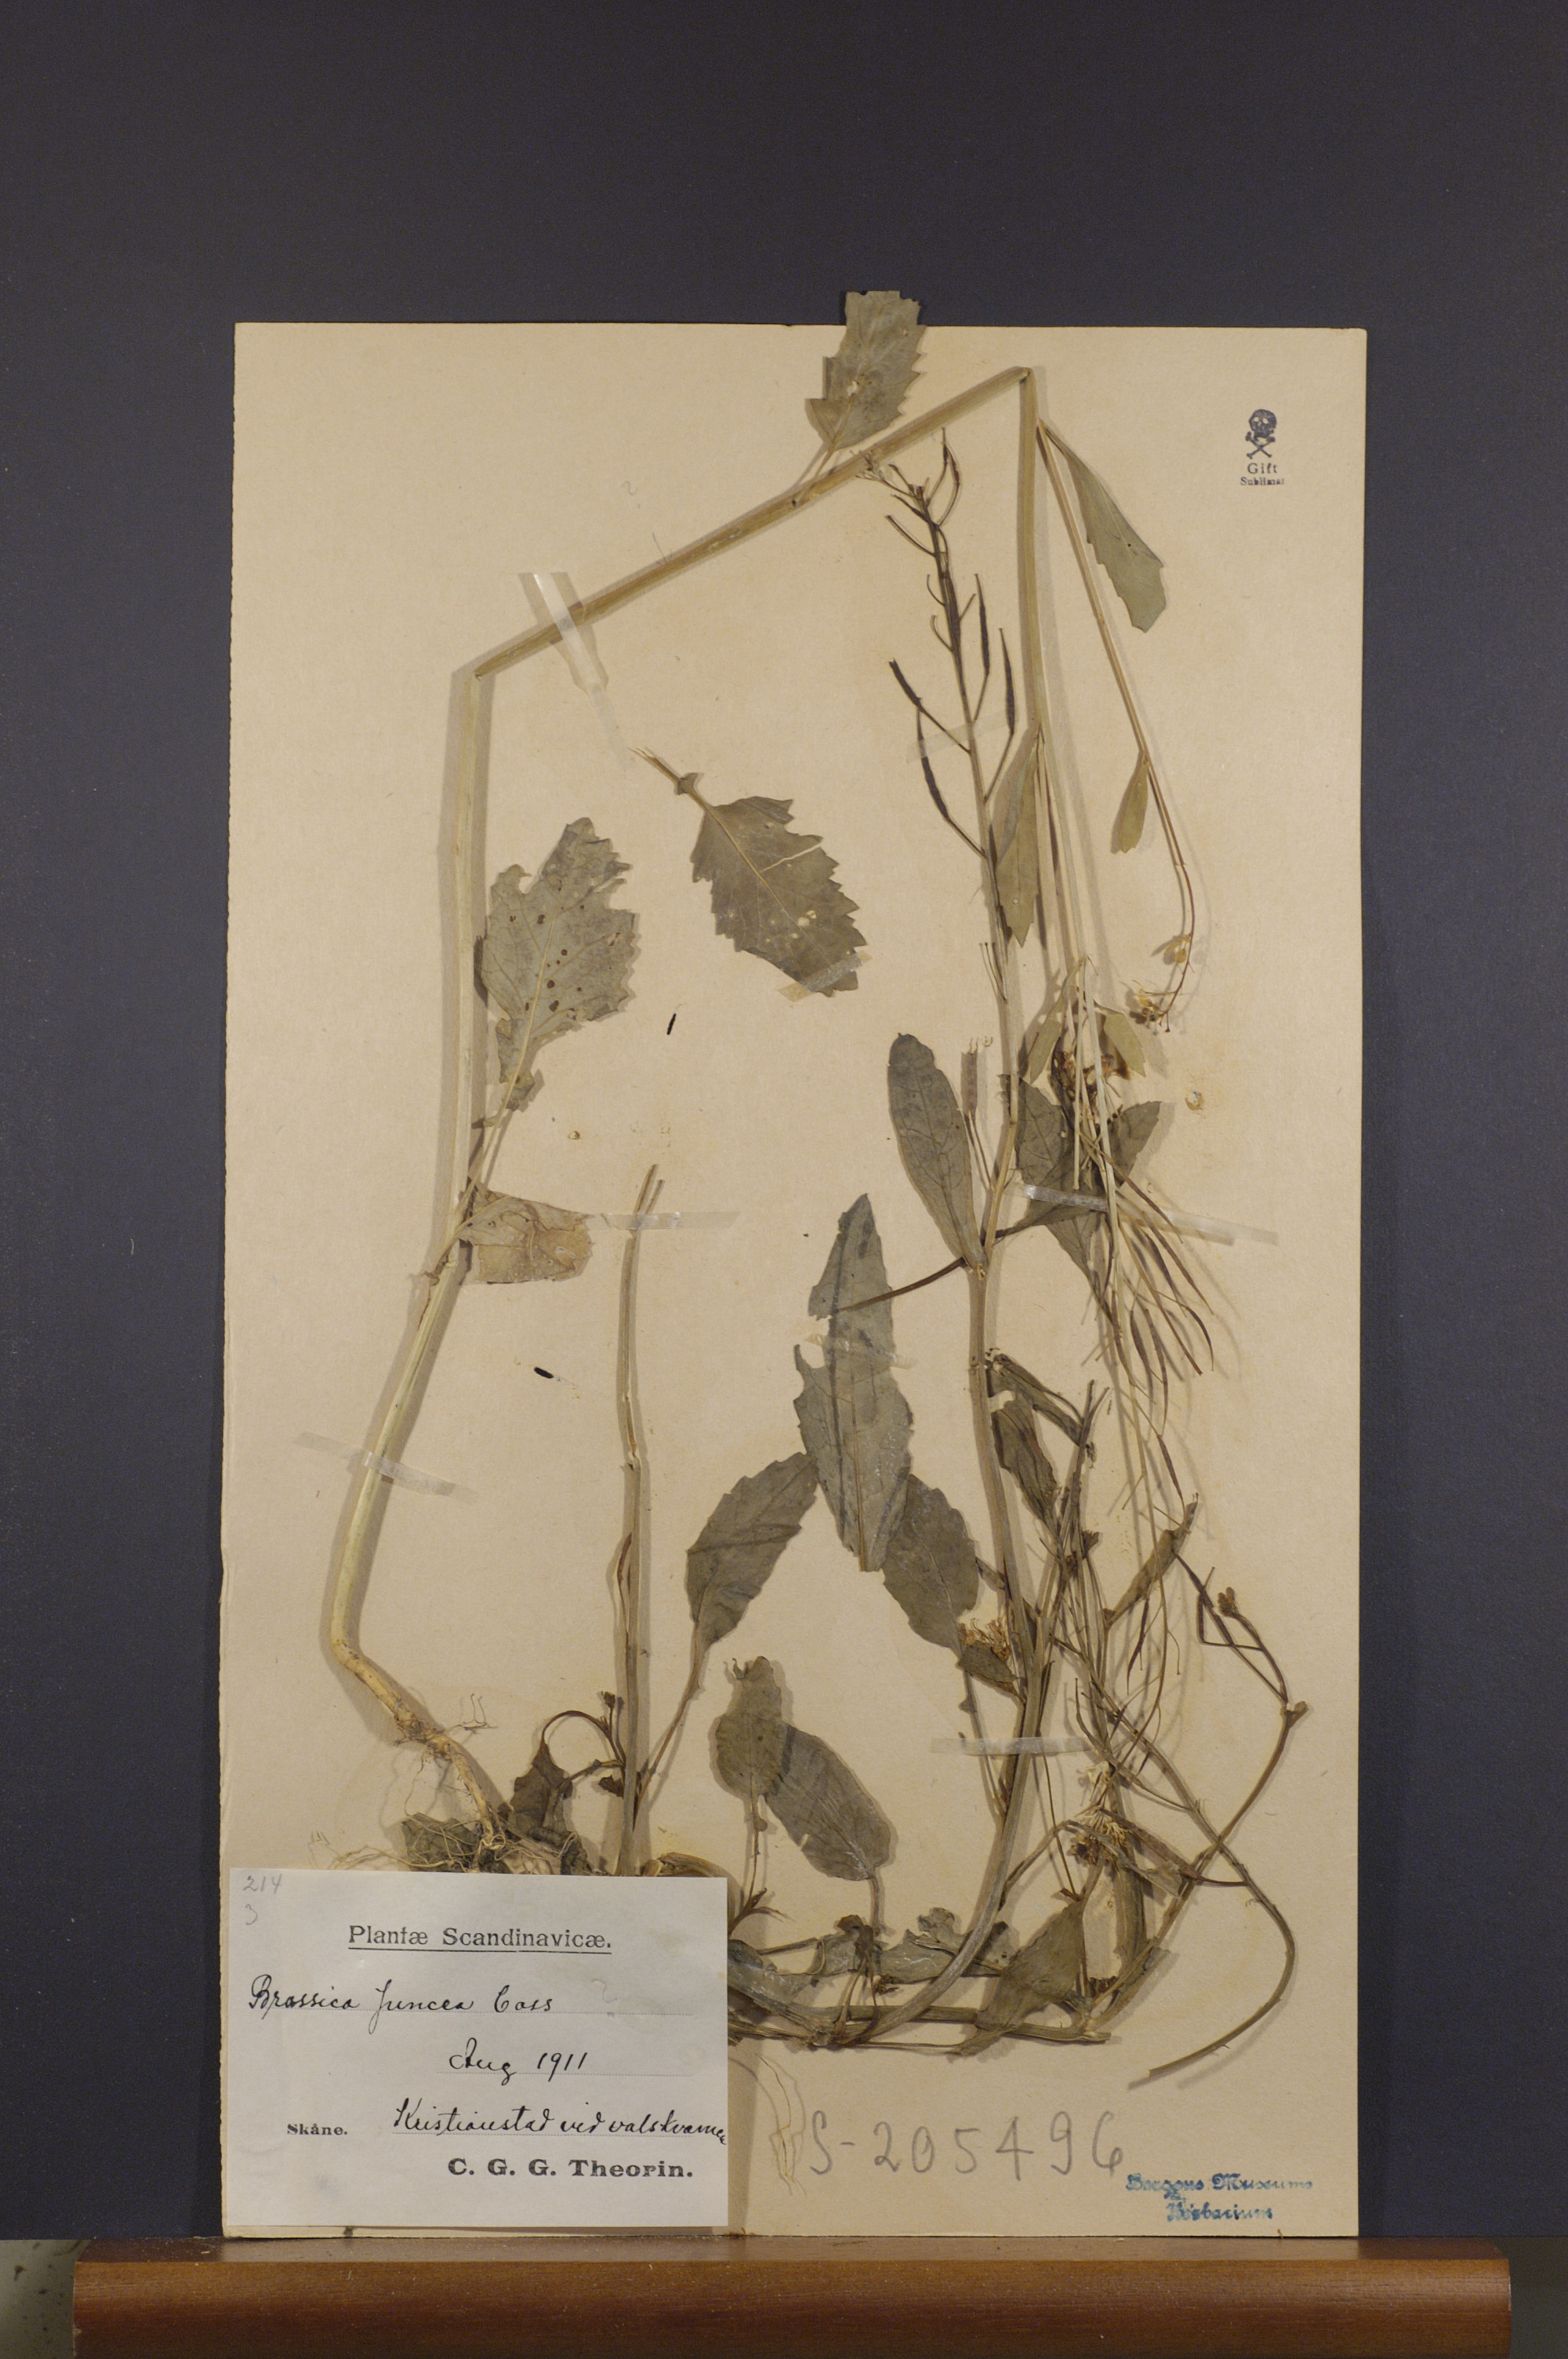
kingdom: Plantae
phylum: Tracheophyta
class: Magnoliopsida
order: Brassicales
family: Brassicaceae
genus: Brassica
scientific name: Brassica juncea
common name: Brown mustard
